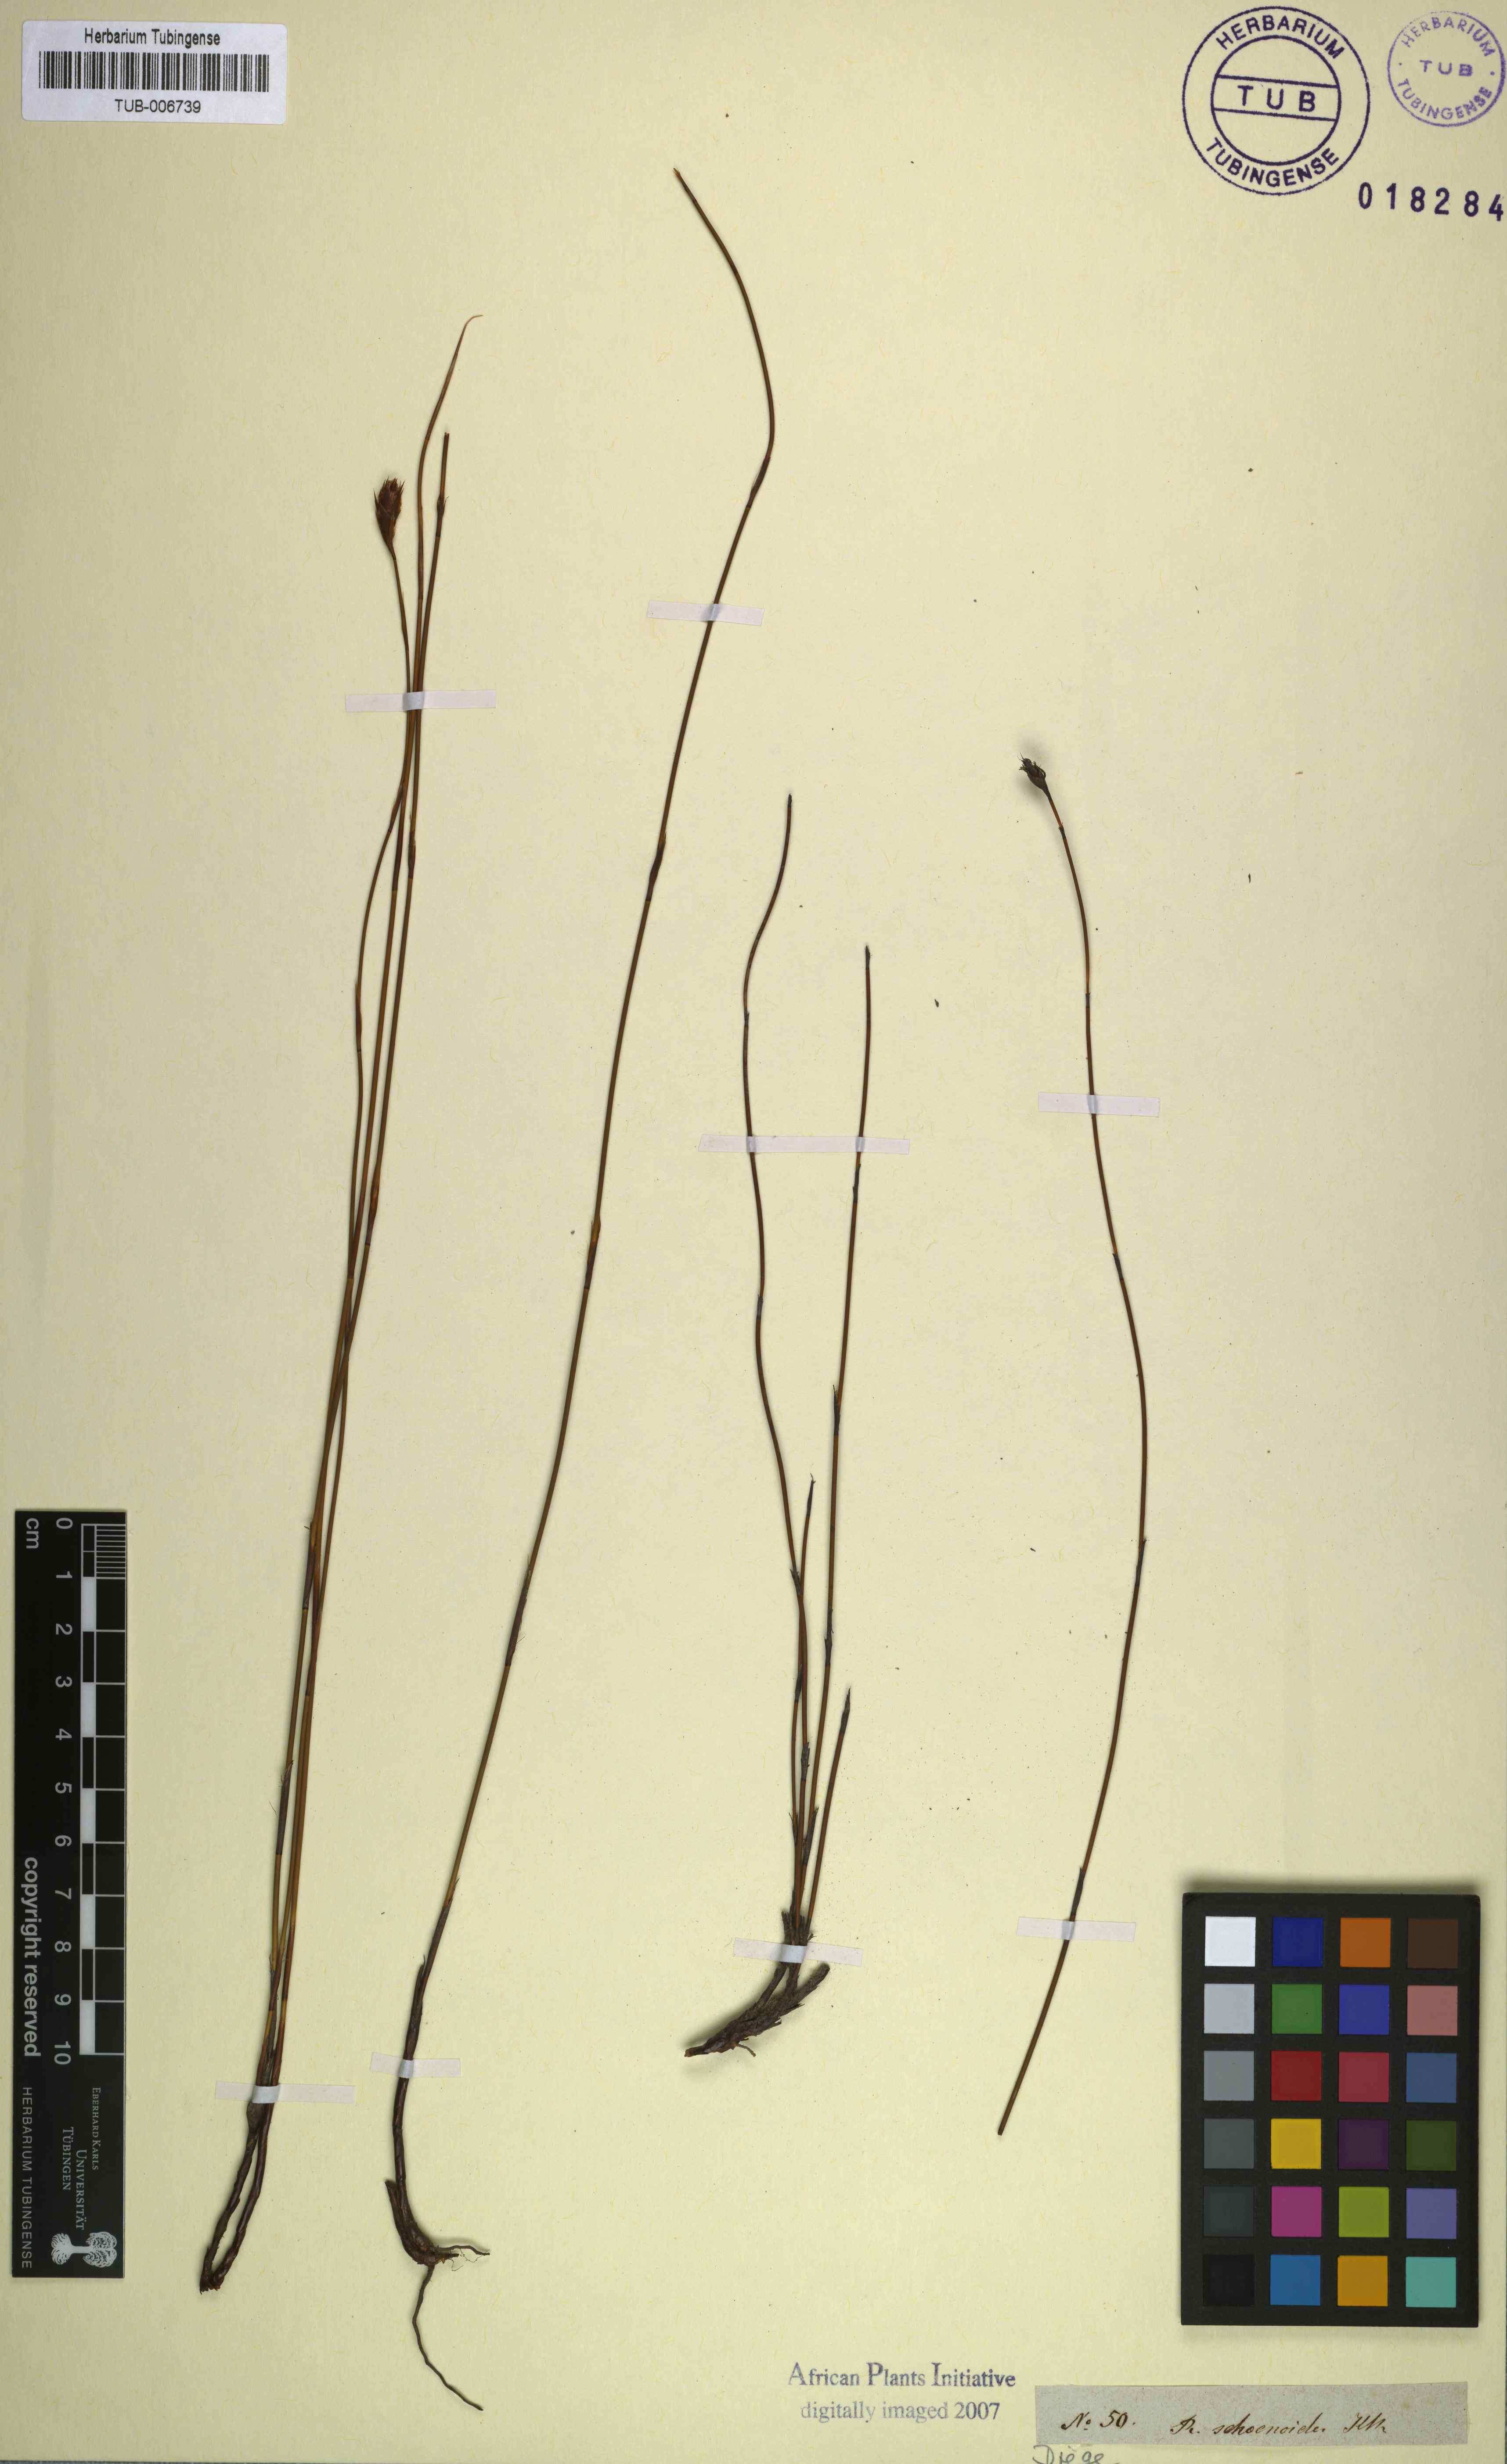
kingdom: Plantae
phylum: Tracheophyta
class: Liliopsida
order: Poales
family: Restionaceae
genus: Restio
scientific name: Restio schoenoides
